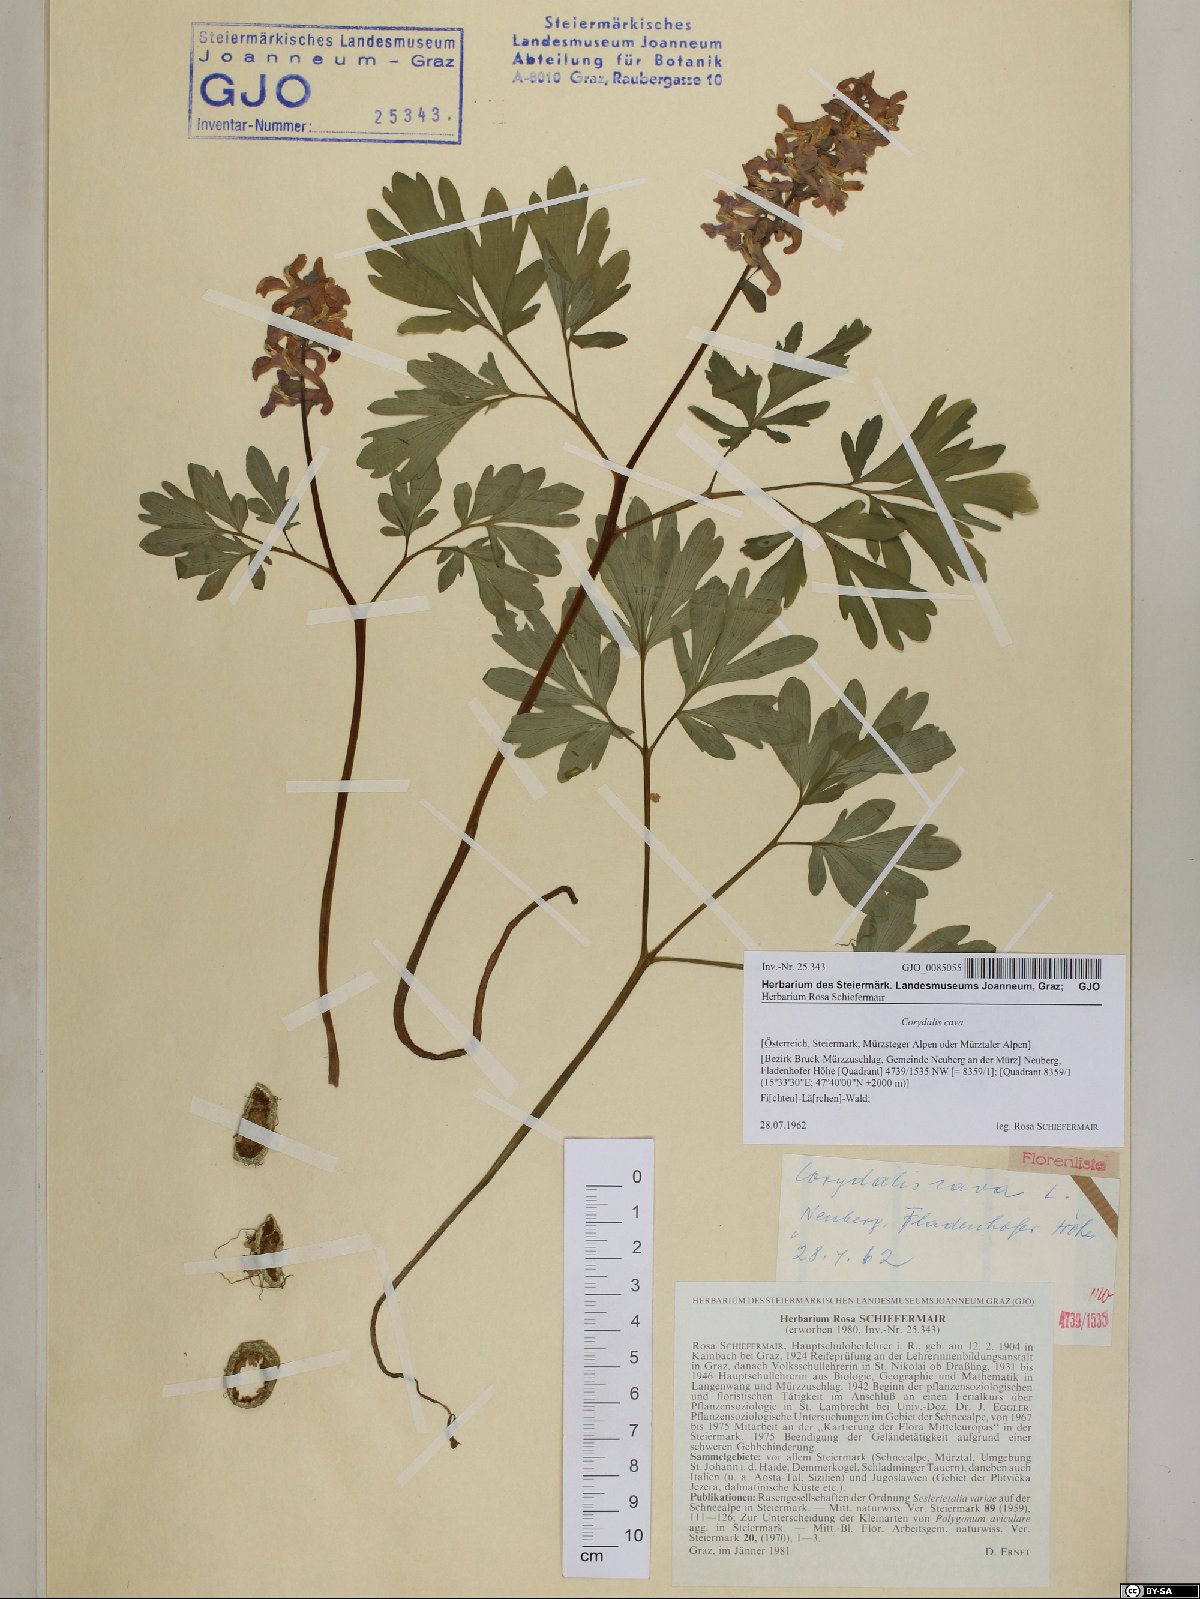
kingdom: Plantae
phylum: Tracheophyta
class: Magnoliopsida
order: Ranunculales
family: Papaveraceae
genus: Corydalis
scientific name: Corydalis cava
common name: Hollowroot
